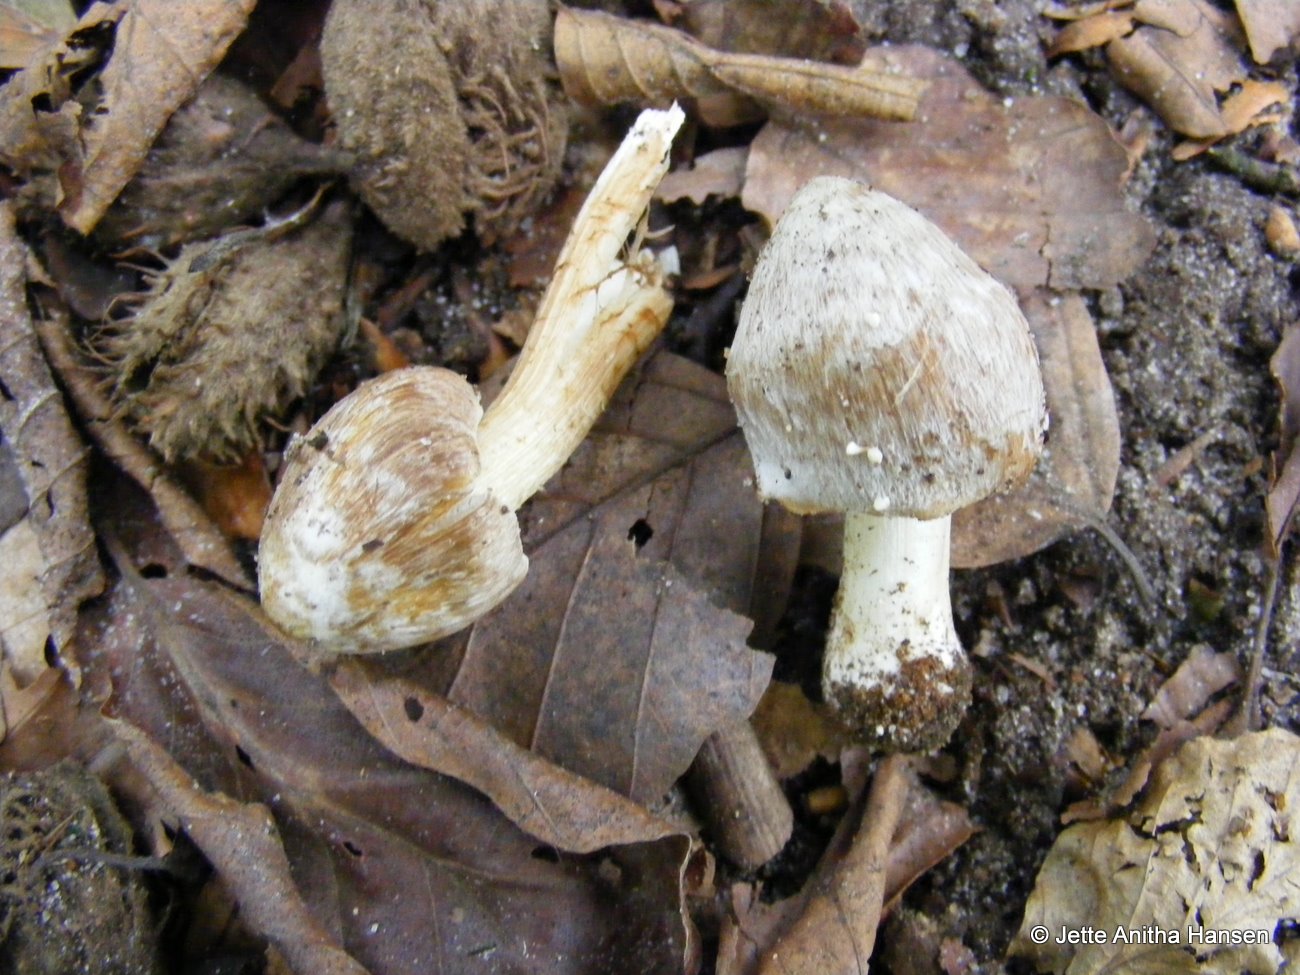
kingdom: Fungi
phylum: Basidiomycota
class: Agaricomycetes
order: Agaricales
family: Inocybaceae
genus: Inosperma
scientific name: Inosperma
